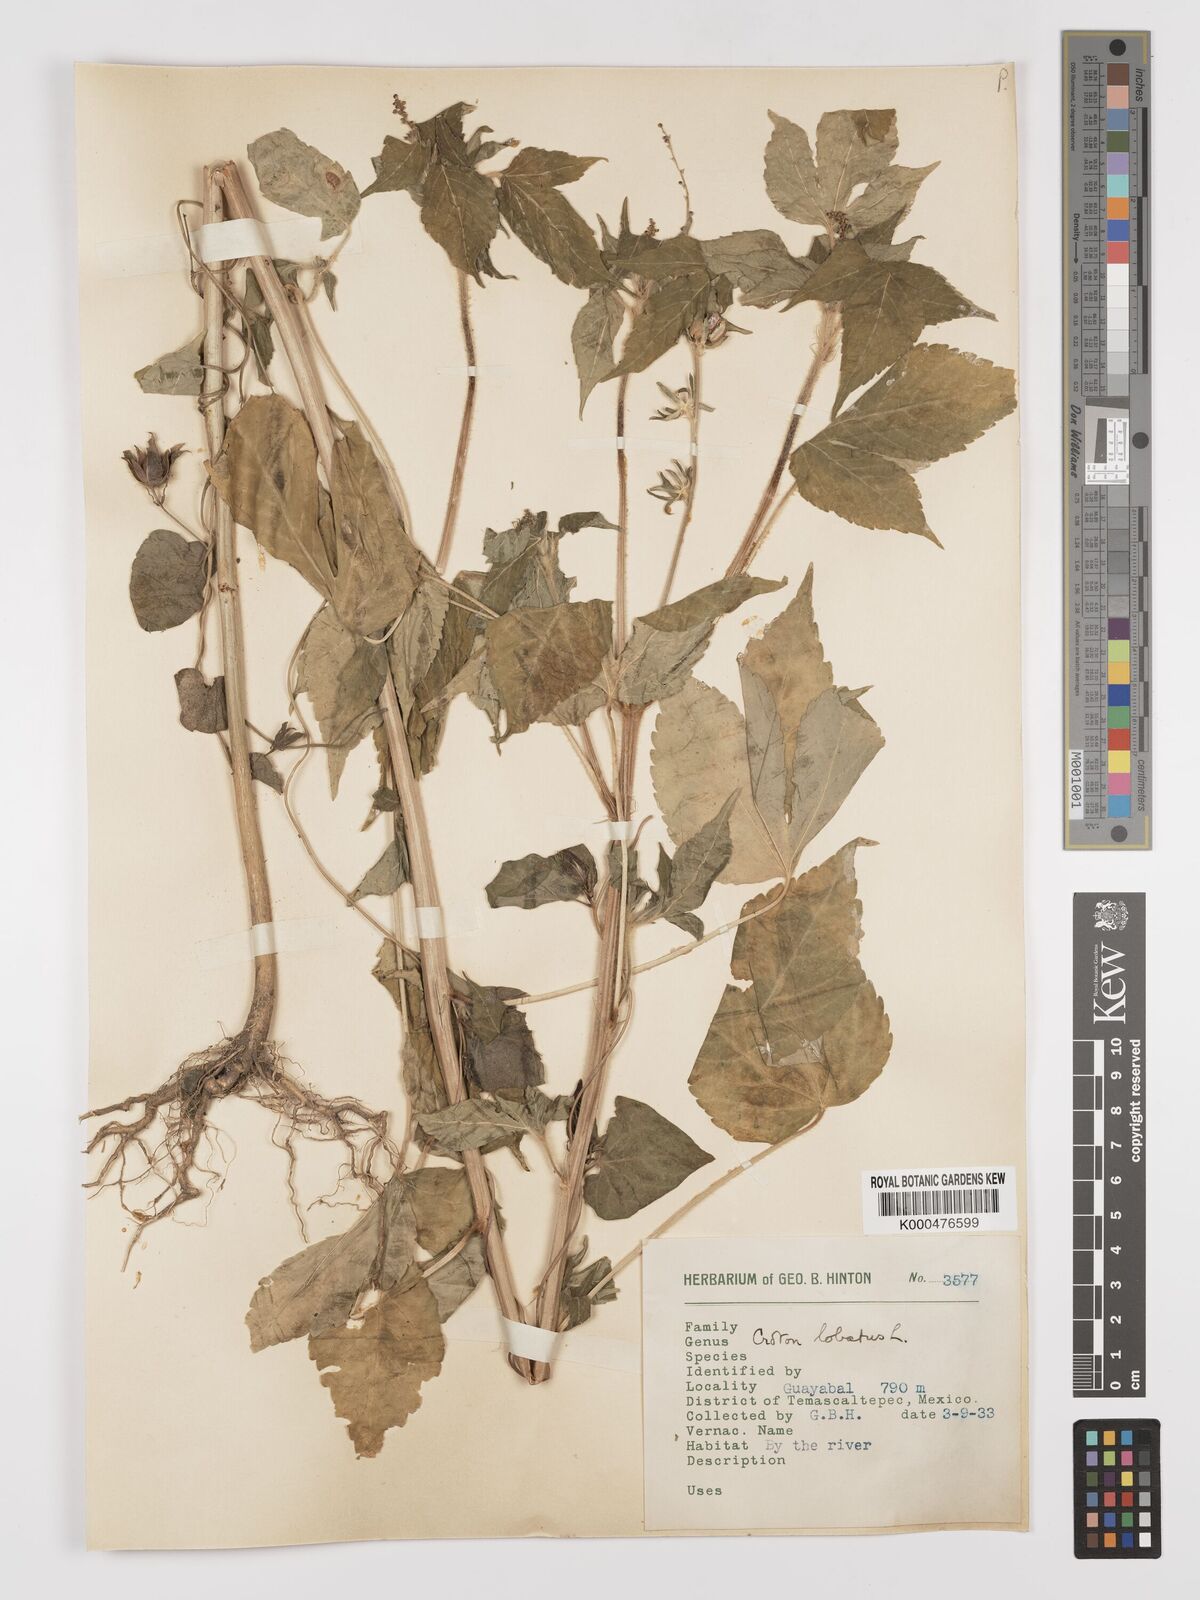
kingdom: Plantae
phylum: Tracheophyta
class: Magnoliopsida
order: Malpighiales
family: Euphorbiaceae
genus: Astraea
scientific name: Astraea lobata
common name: Lobed croton
